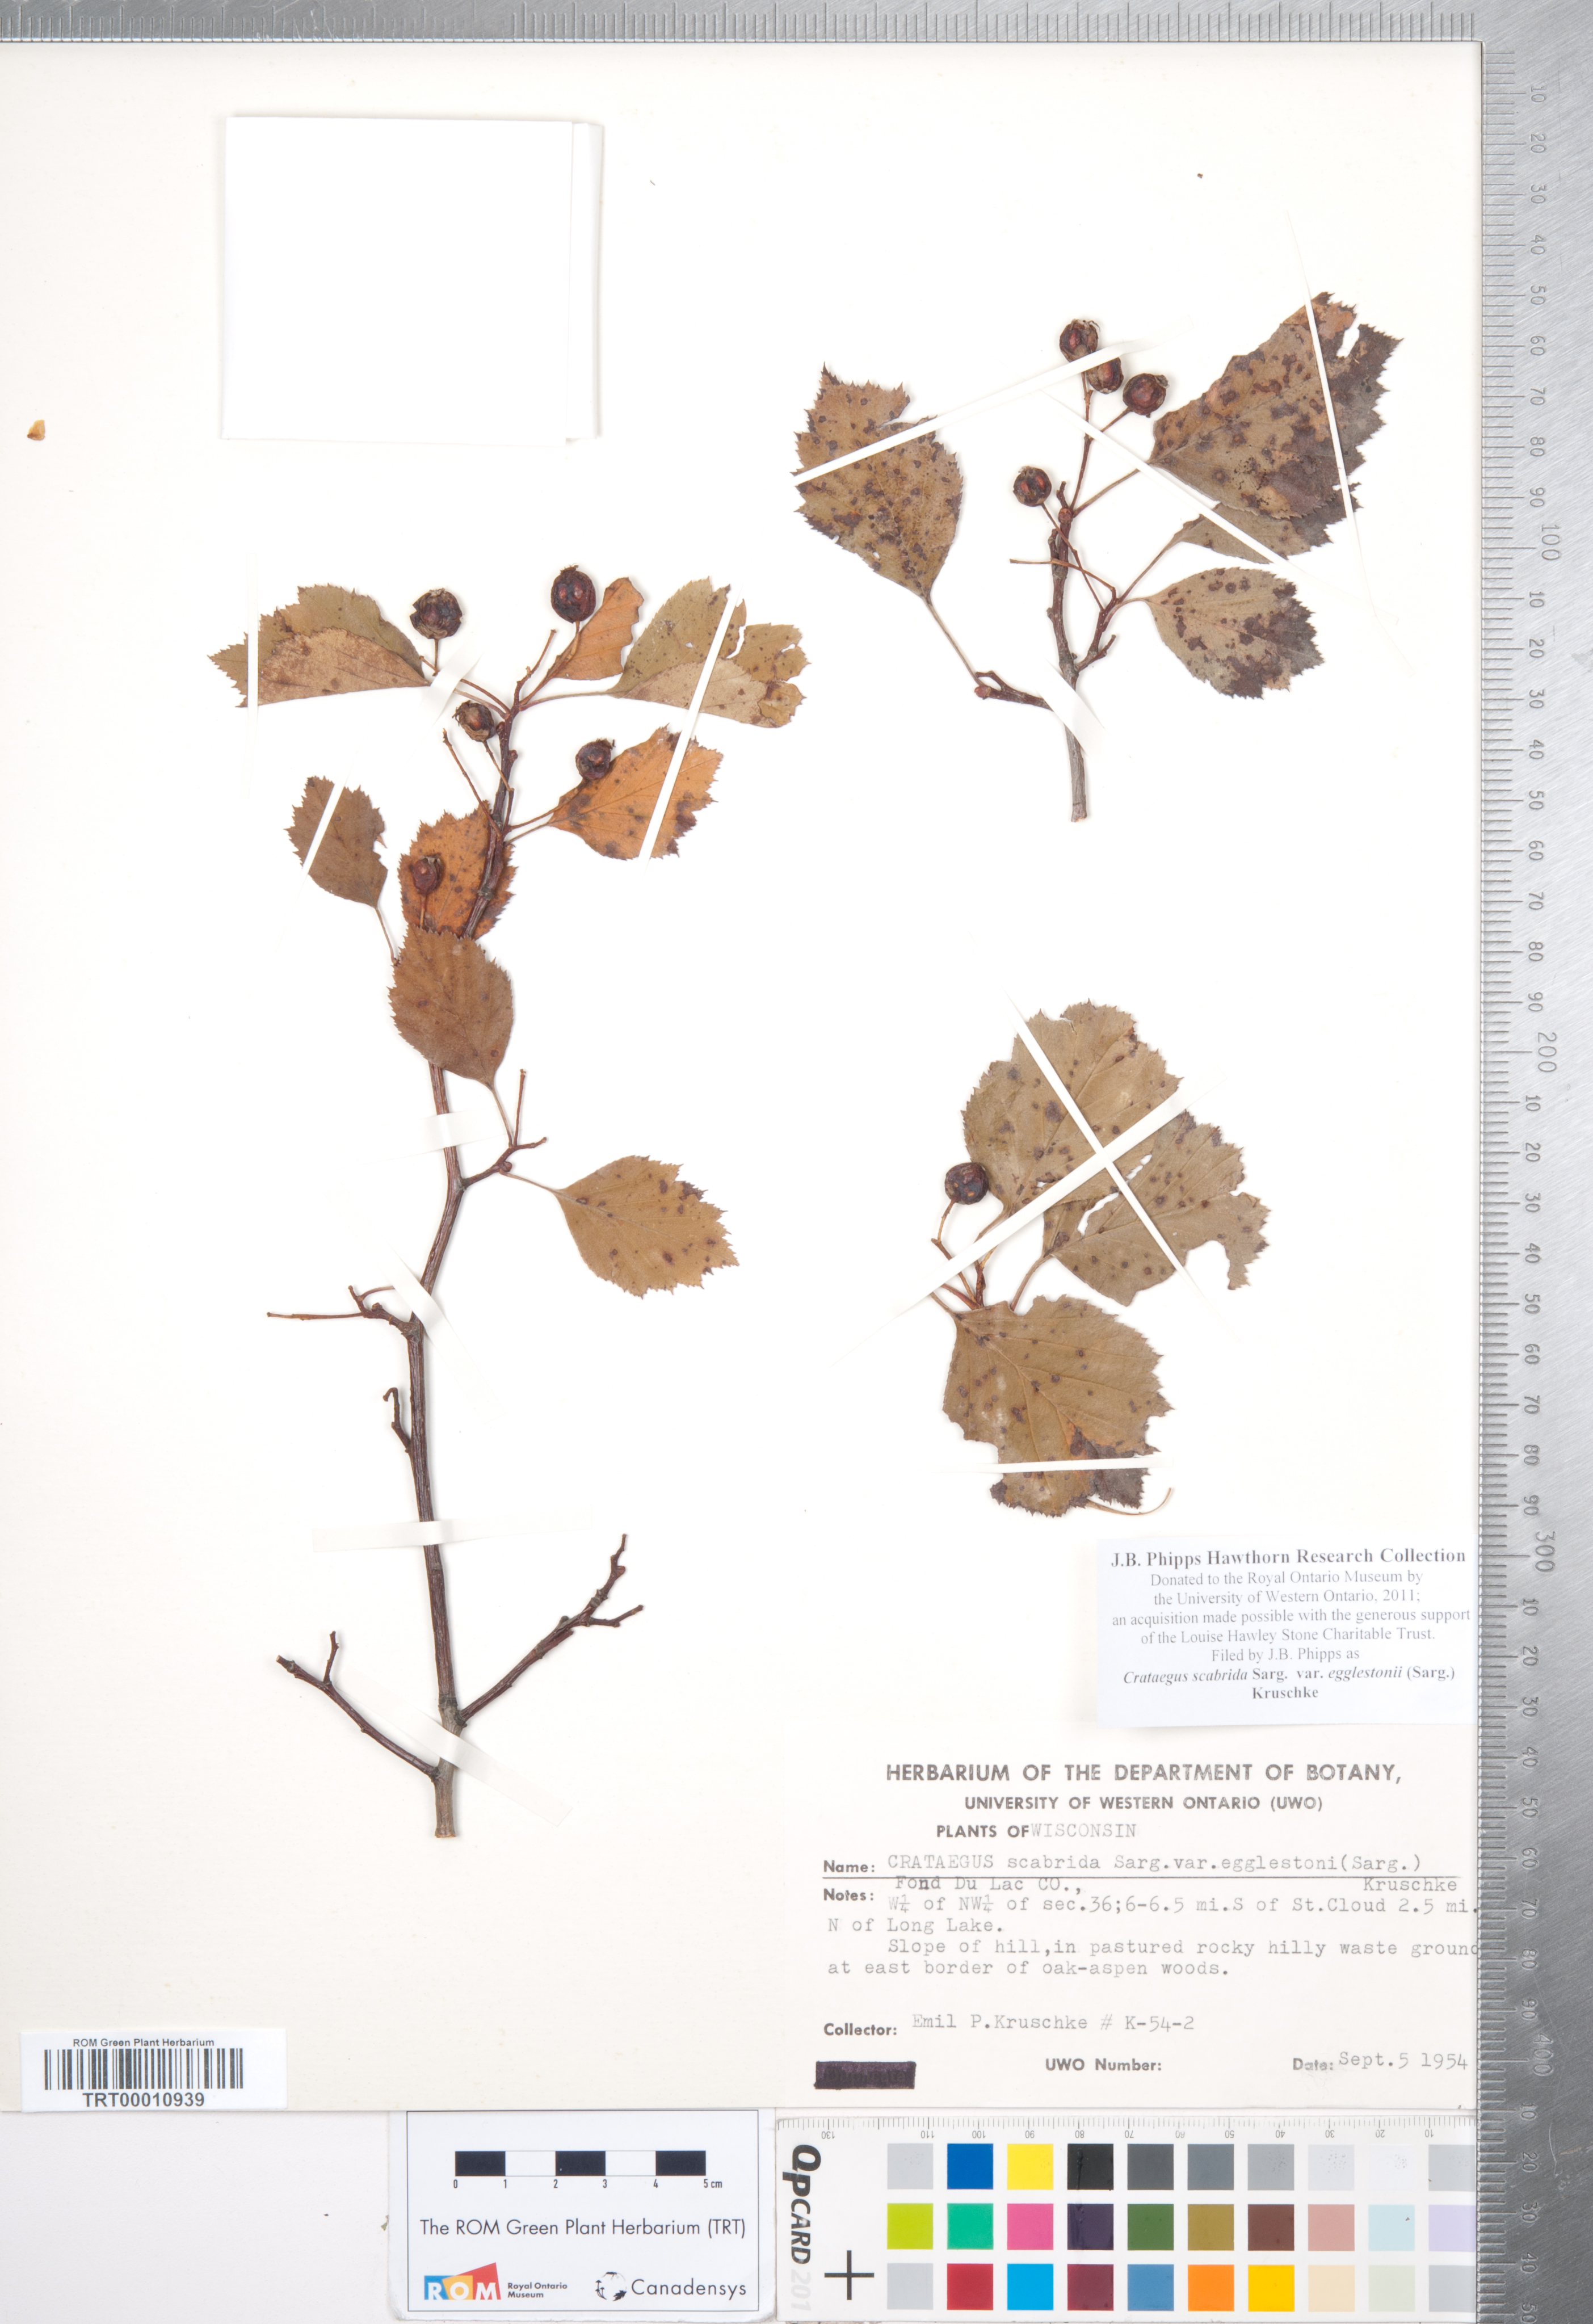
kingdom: Plantae
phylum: Tracheophyta
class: Magnoliopsida
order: Rosales
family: Rosaceae
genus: Crataegus
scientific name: Crataegus scabrida
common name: Rough hawthorn
